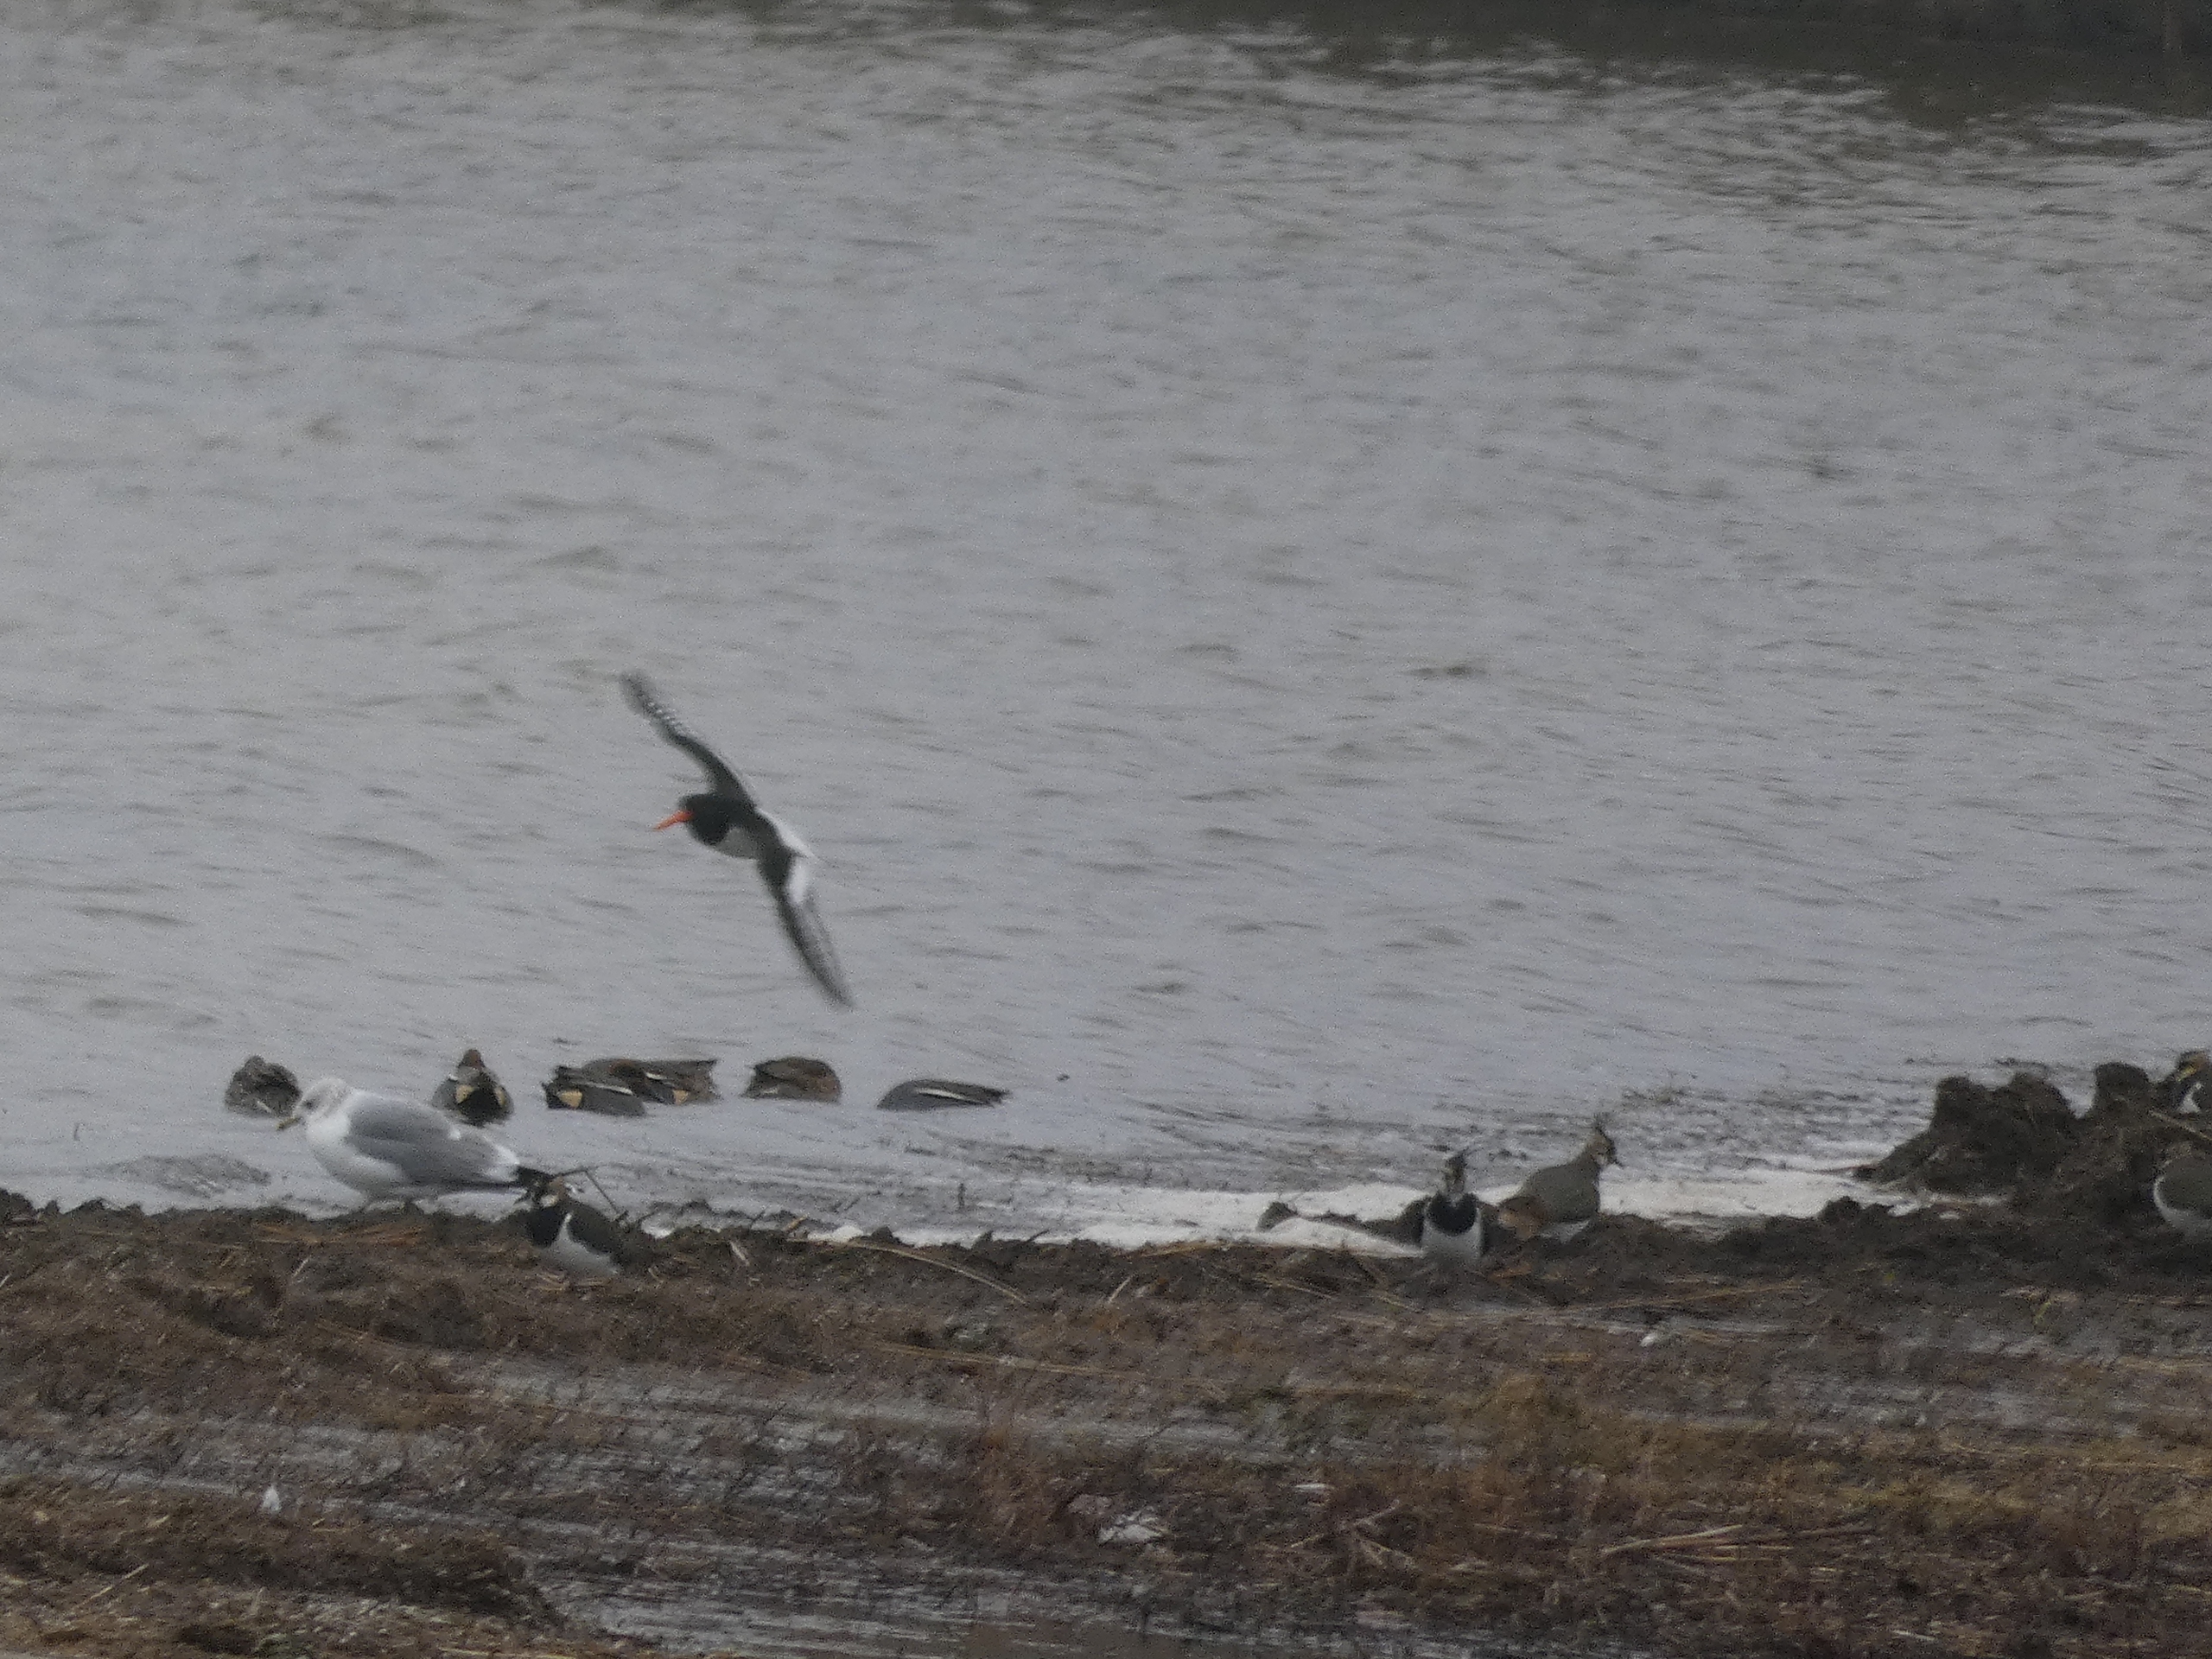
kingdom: Animalia
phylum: Chordata
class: Aves
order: Charadriiformes
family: Charadriidae
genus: Vanellus
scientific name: Vanellus vanellus
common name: Vibe
